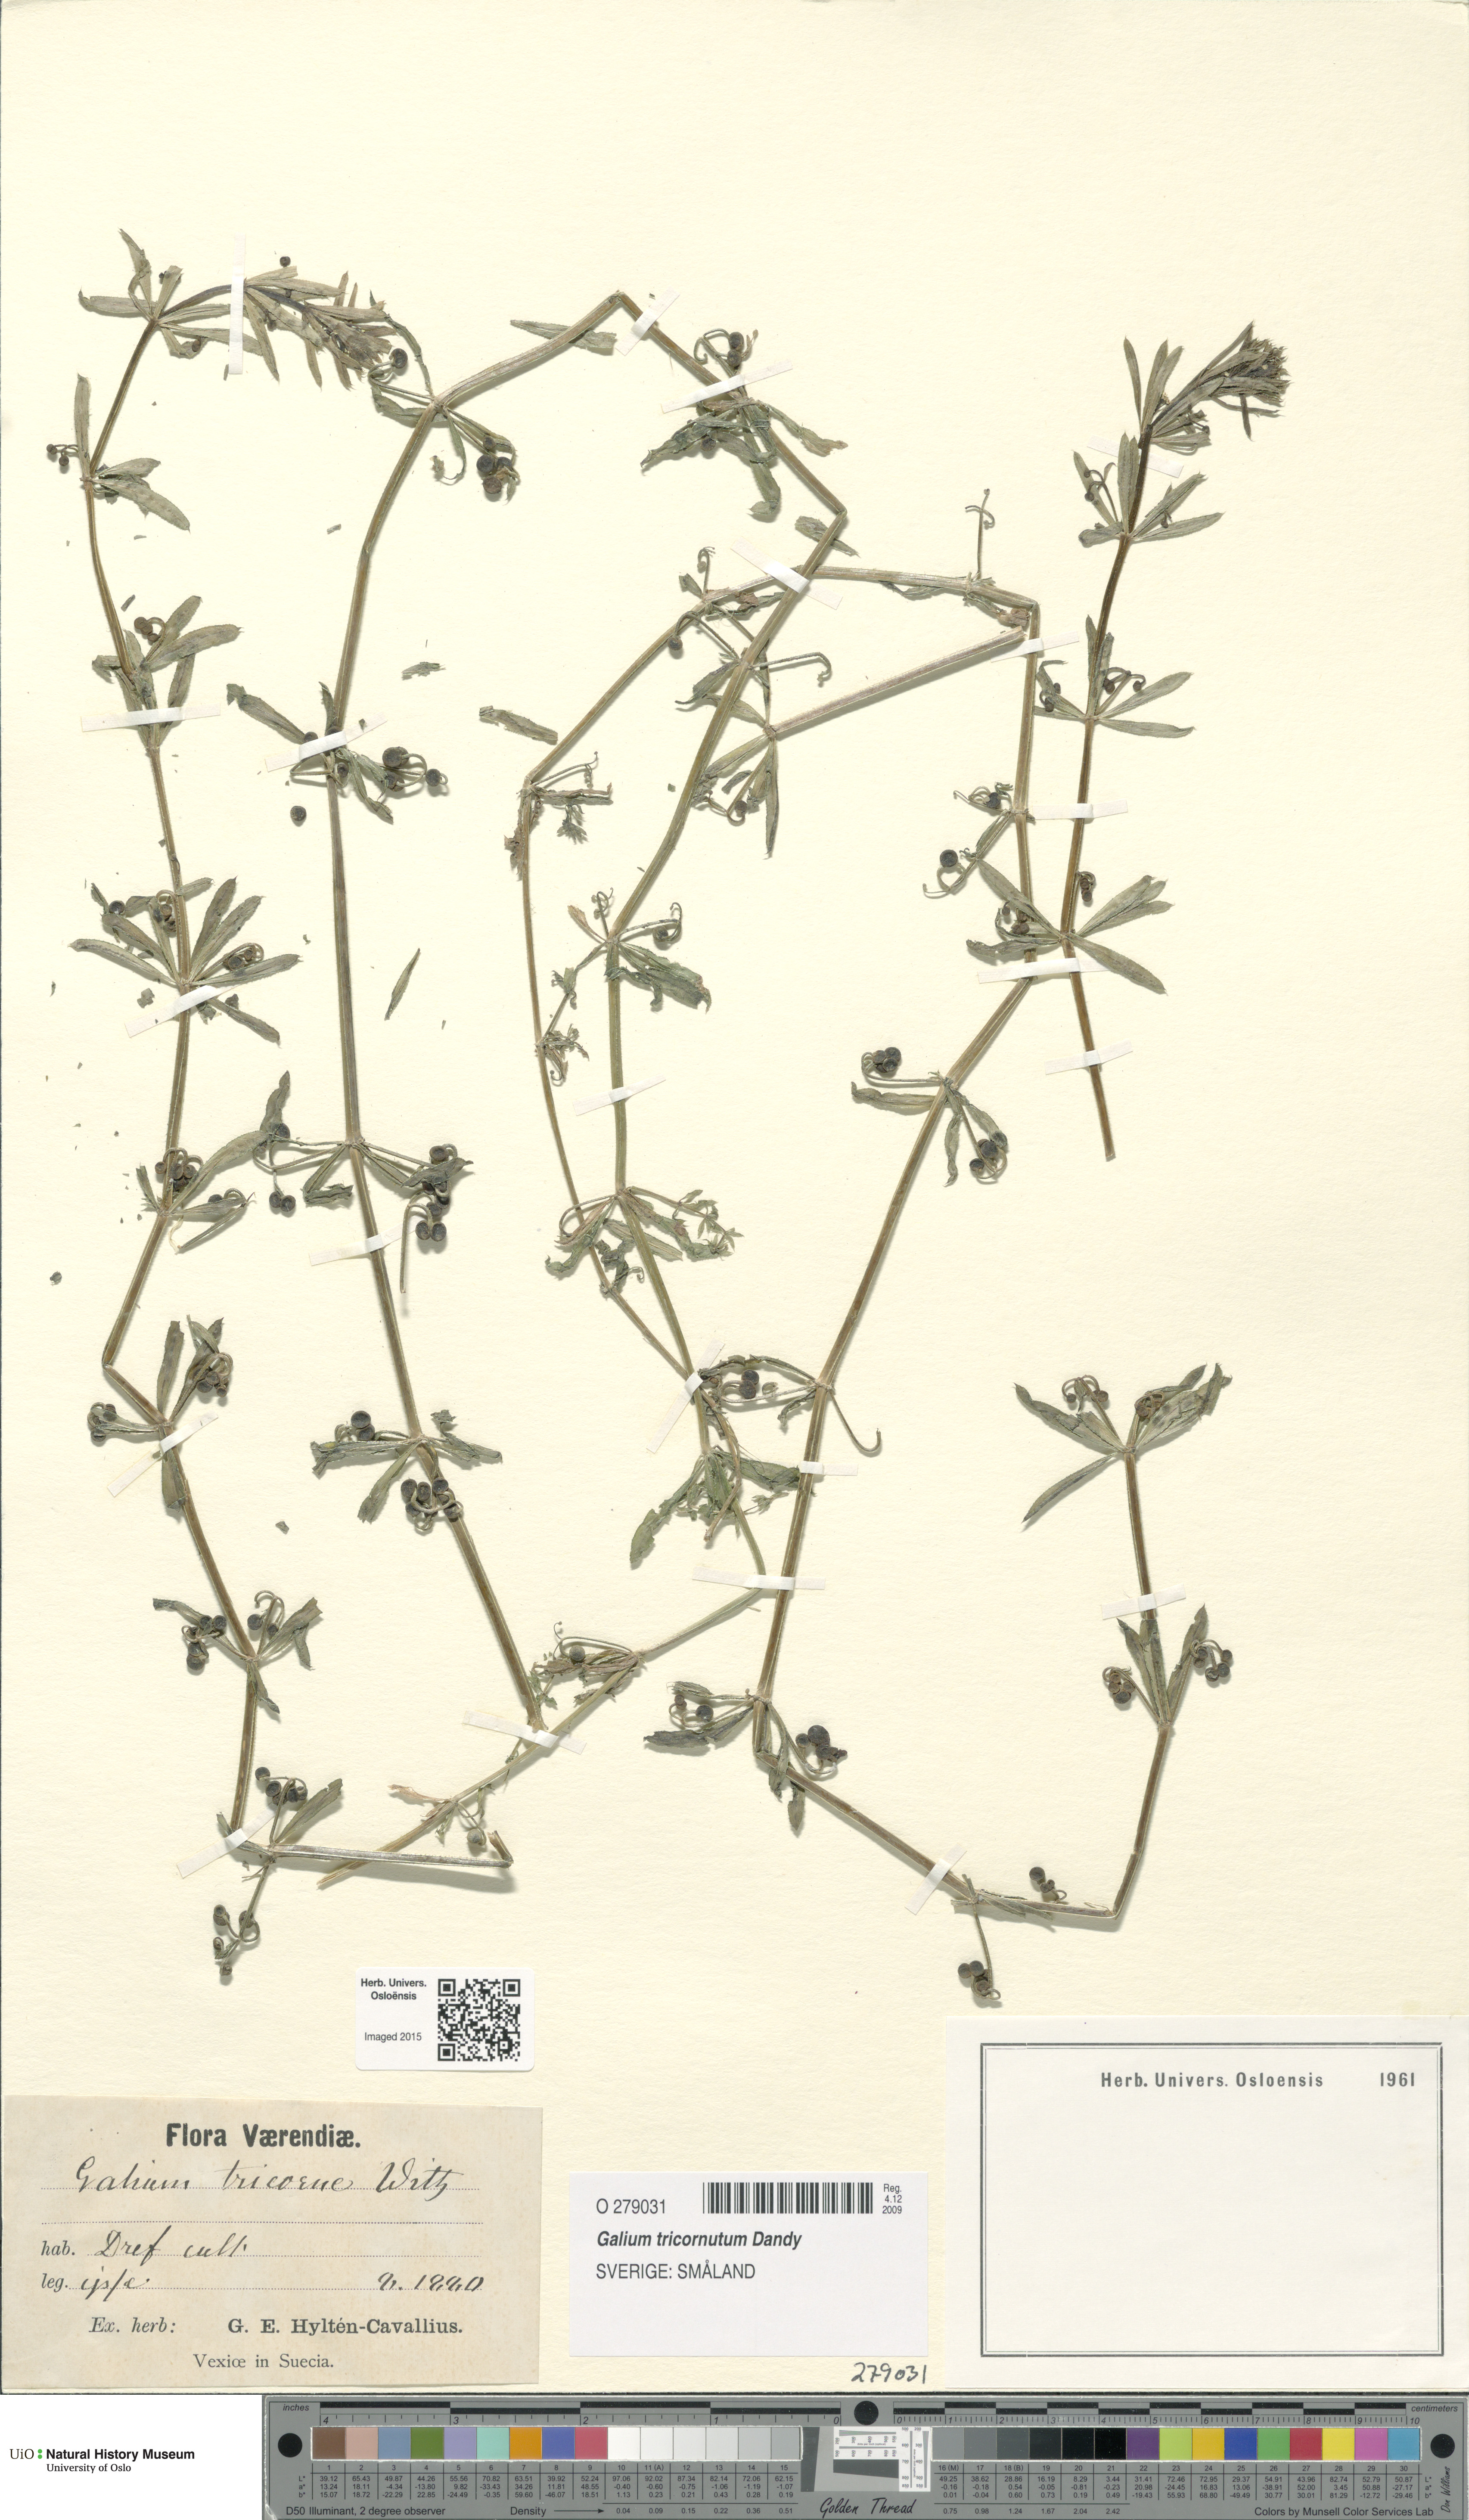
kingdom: Plantae
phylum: Tracheophyta
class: Magnoliopsida
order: Gentianales
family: Rubiaceae
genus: Galium
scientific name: Galium tricornutum
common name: Corn cleavers
